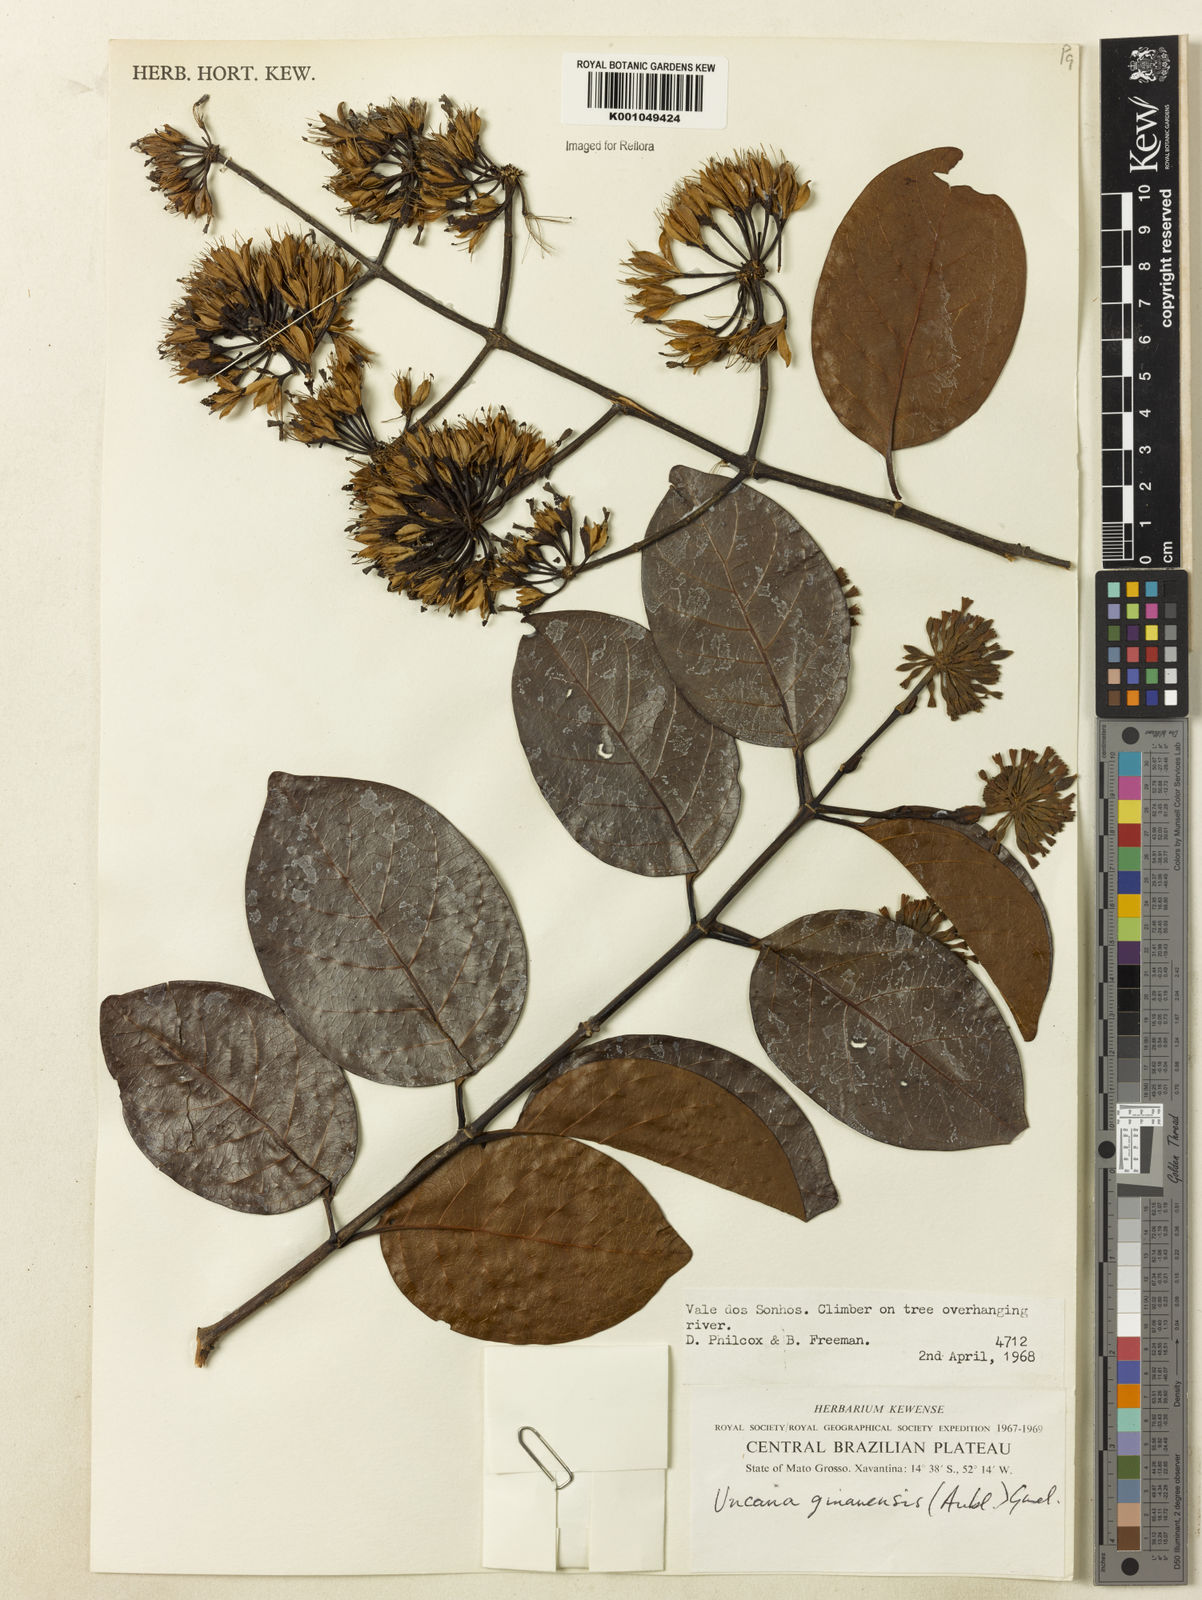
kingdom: Plantae
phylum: Tracheophyta
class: Magnoliopsida
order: Gentianales
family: Rubiaceae
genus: Uncaria
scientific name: Uncaria guianensis
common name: Cat's-claw
